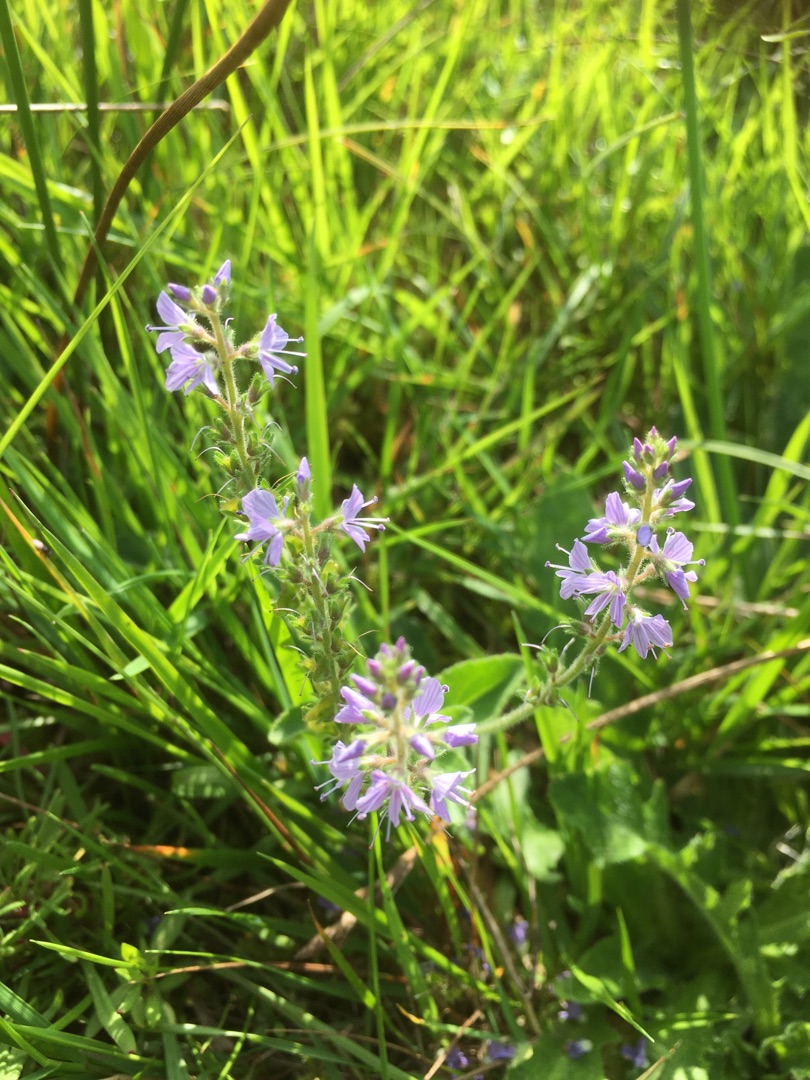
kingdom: Plantae
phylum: Tracheophyta
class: Magnoliopsida
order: Lamiales
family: Plantaginaceae
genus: Veronica
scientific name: Veronica officinalis
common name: Læge-ærenpris
